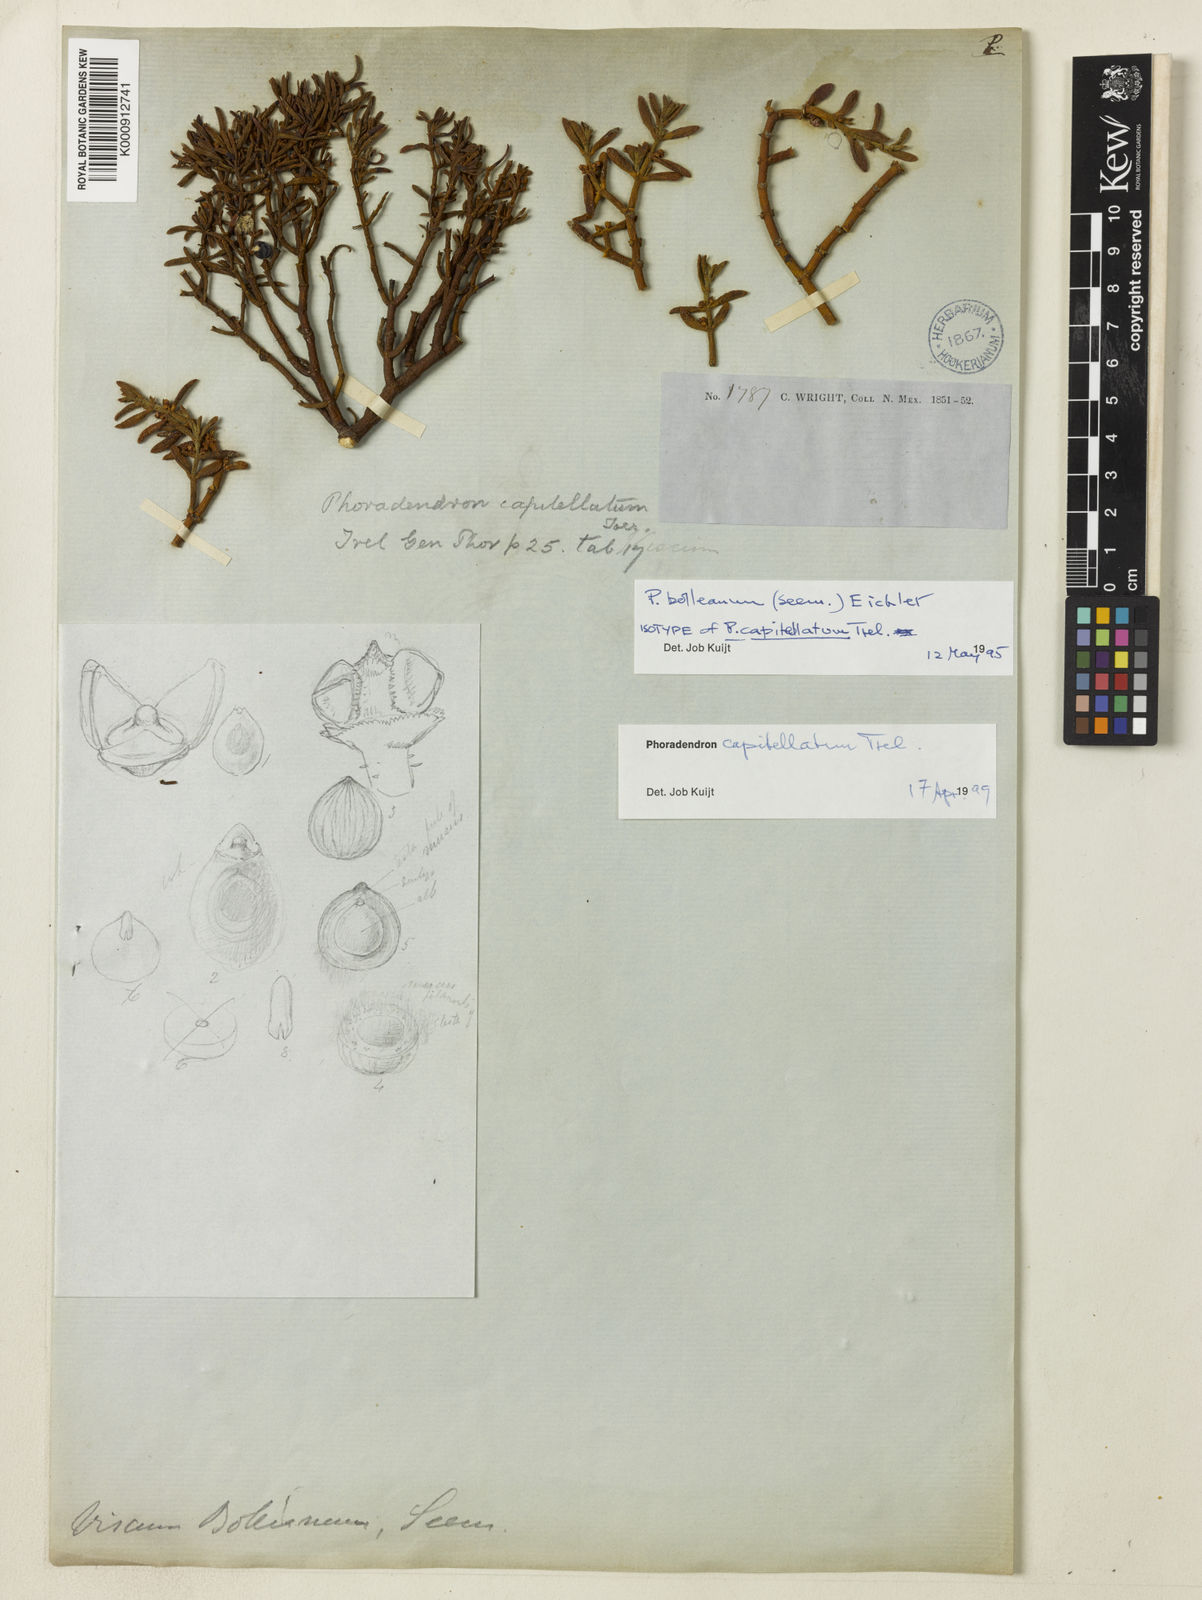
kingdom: Plantae
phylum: Tracheophyta
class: Magnoliopsida
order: Santalales
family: Viscaceae
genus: Phoradendron
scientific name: Phoradendron capitellatum
